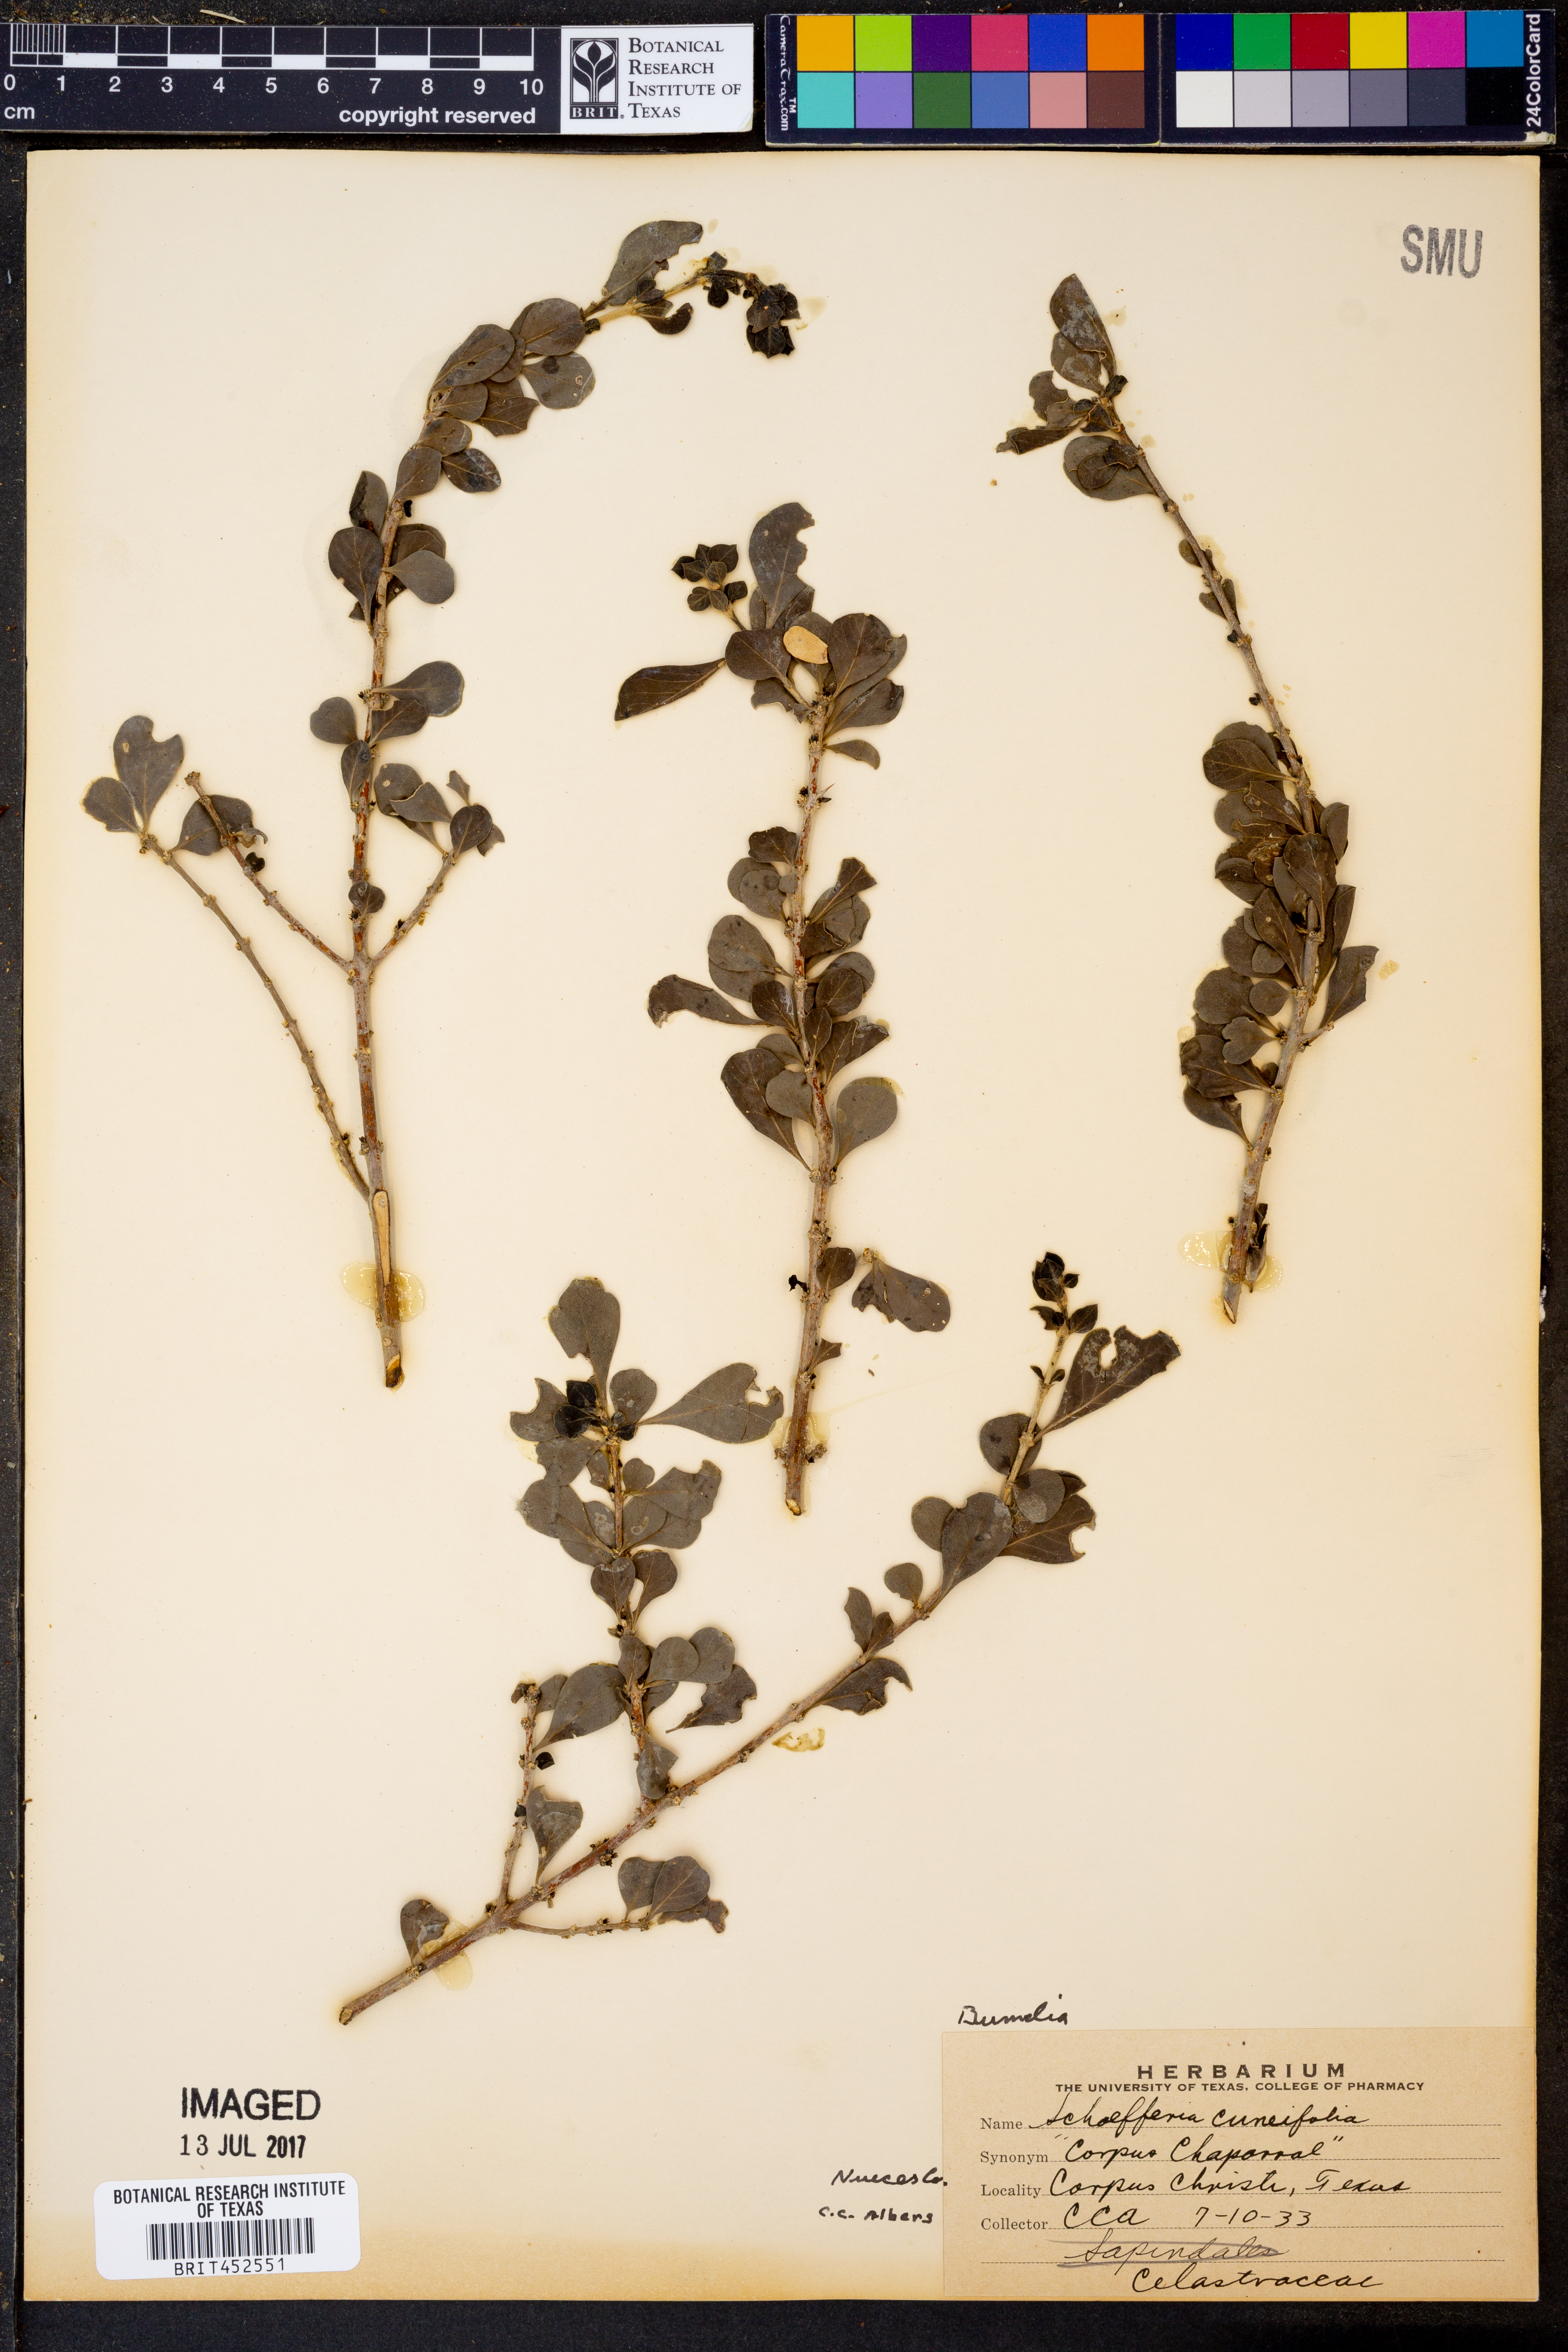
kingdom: Plantae
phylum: Tracheophyta
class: Magnoliopsida
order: Celastrales
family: Celastraceae
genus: Schaefferia
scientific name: Schaefferia cuneifolia
